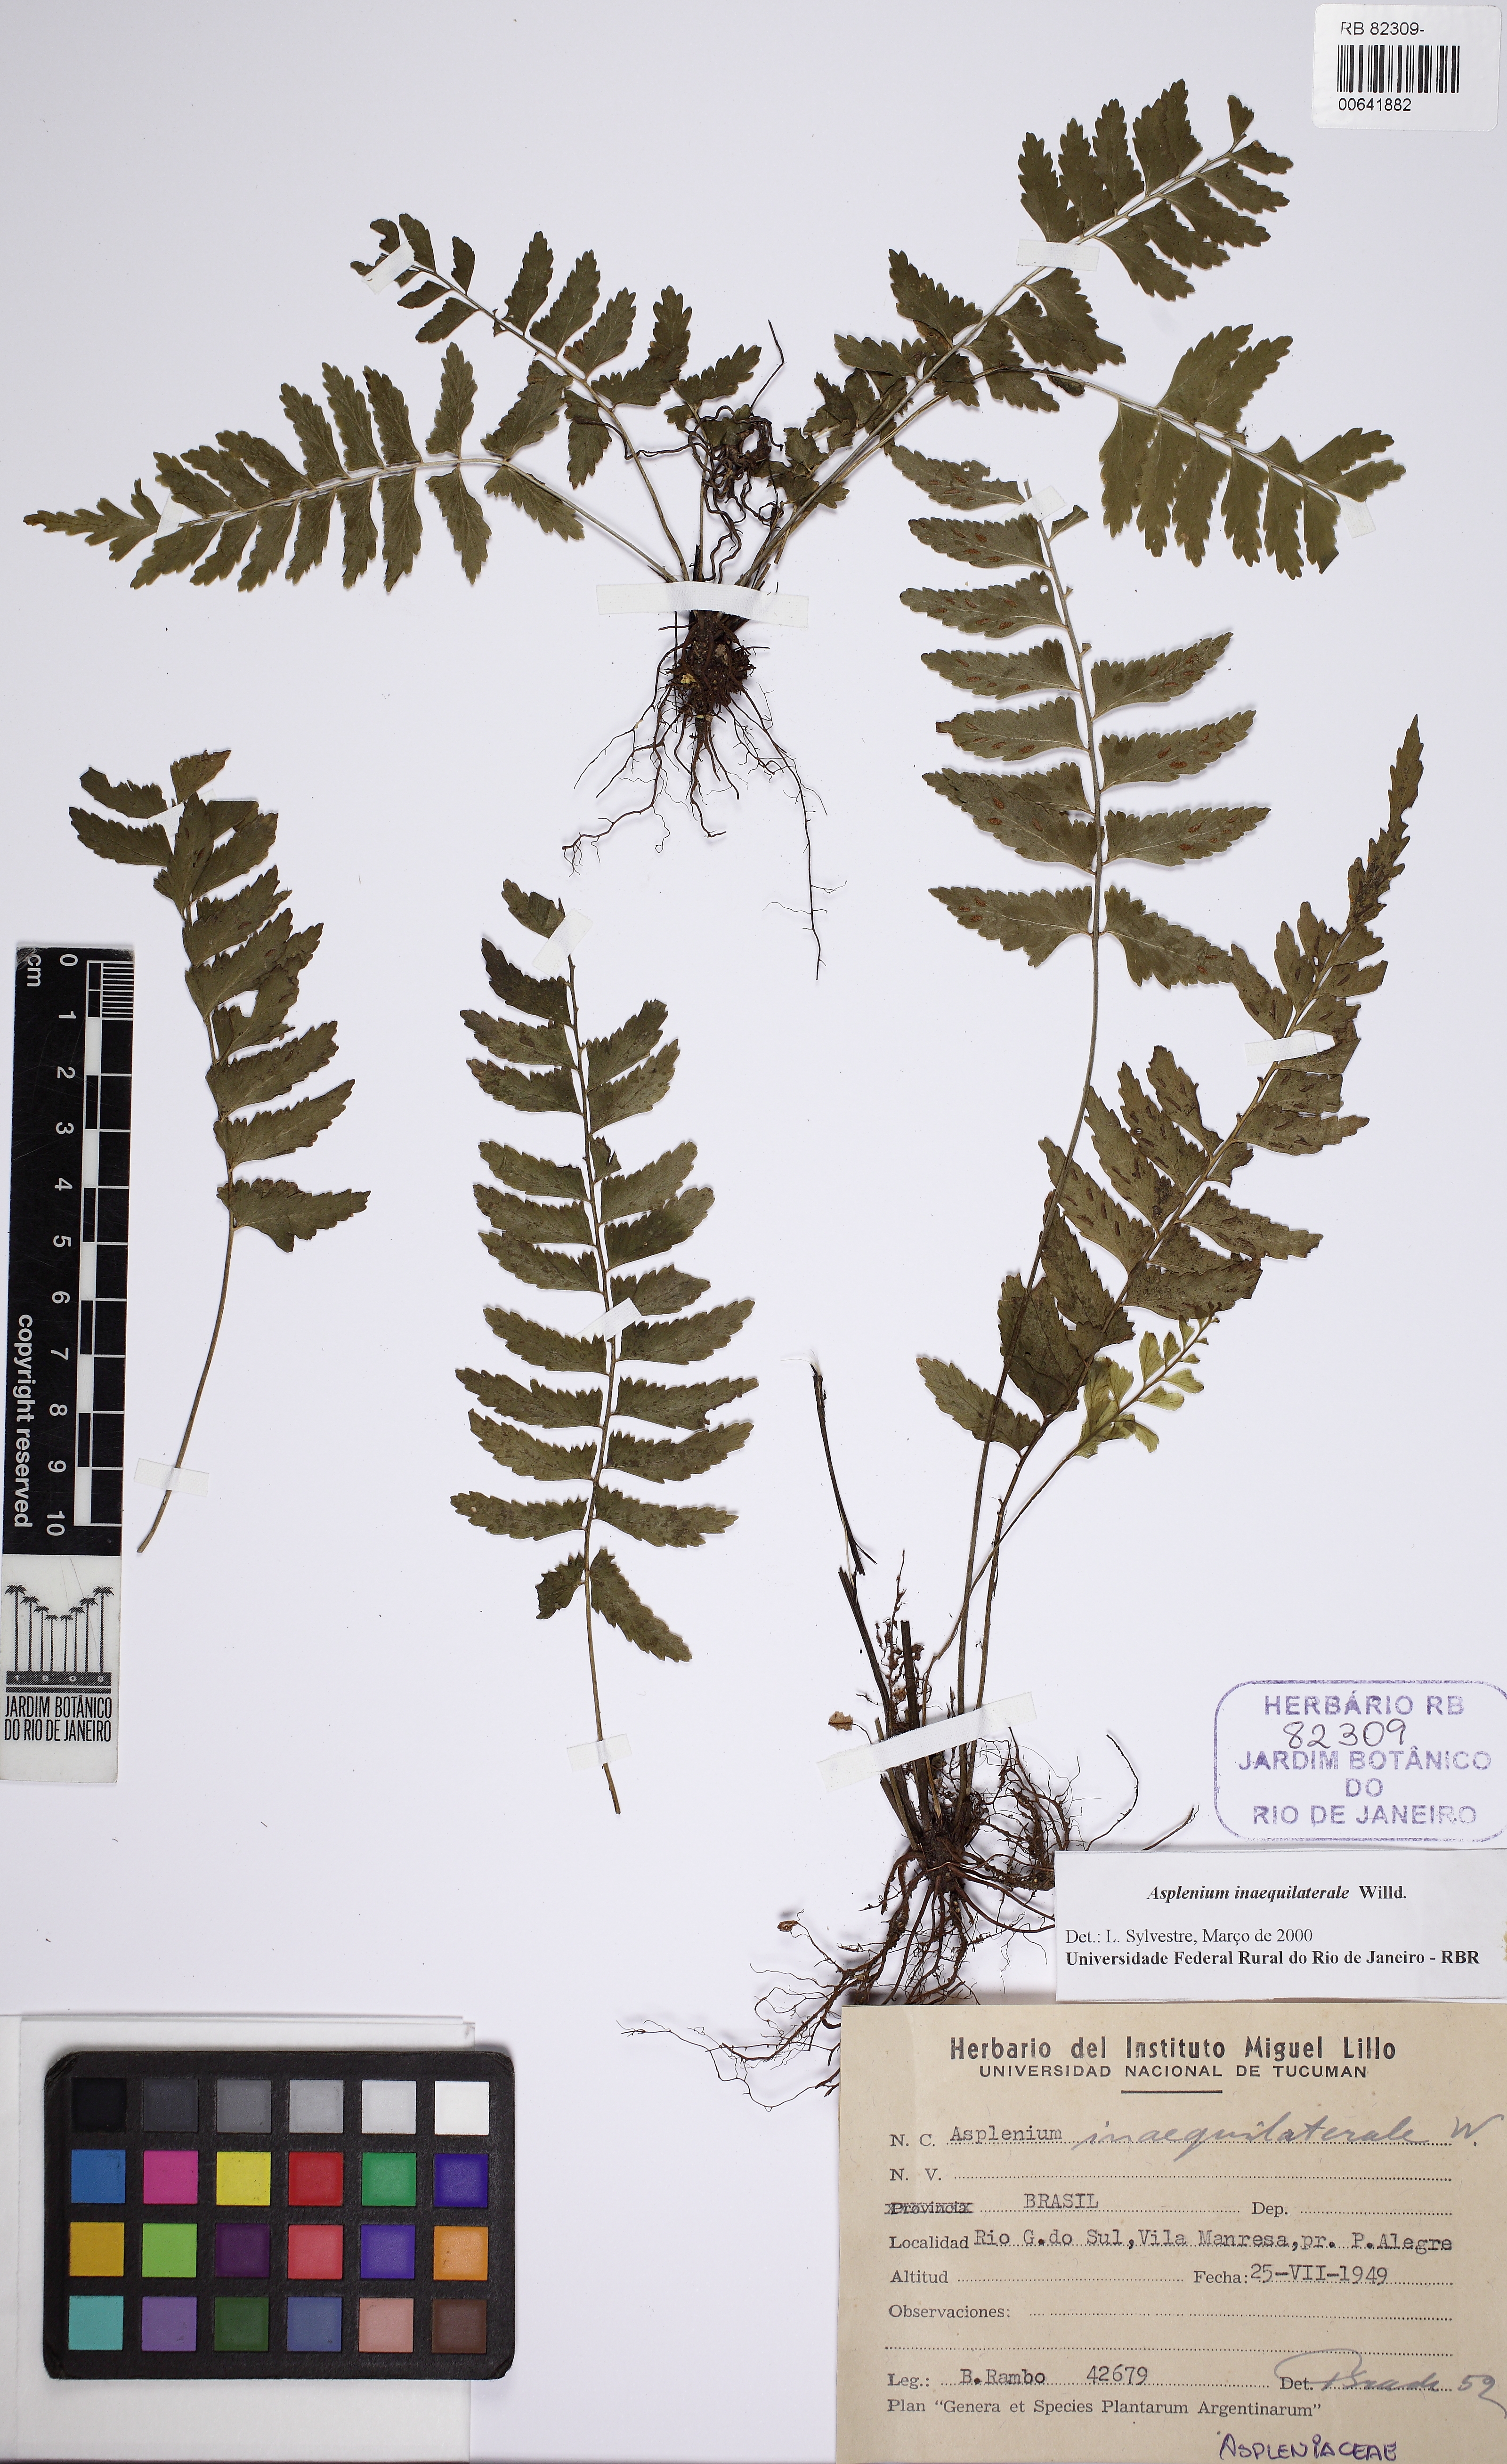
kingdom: Plantae
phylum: Tracheophyta
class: Polypodiopsida
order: Polypodiales
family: Aspleniaceae
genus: Asplenium
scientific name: Asplenium inaequilaterale
